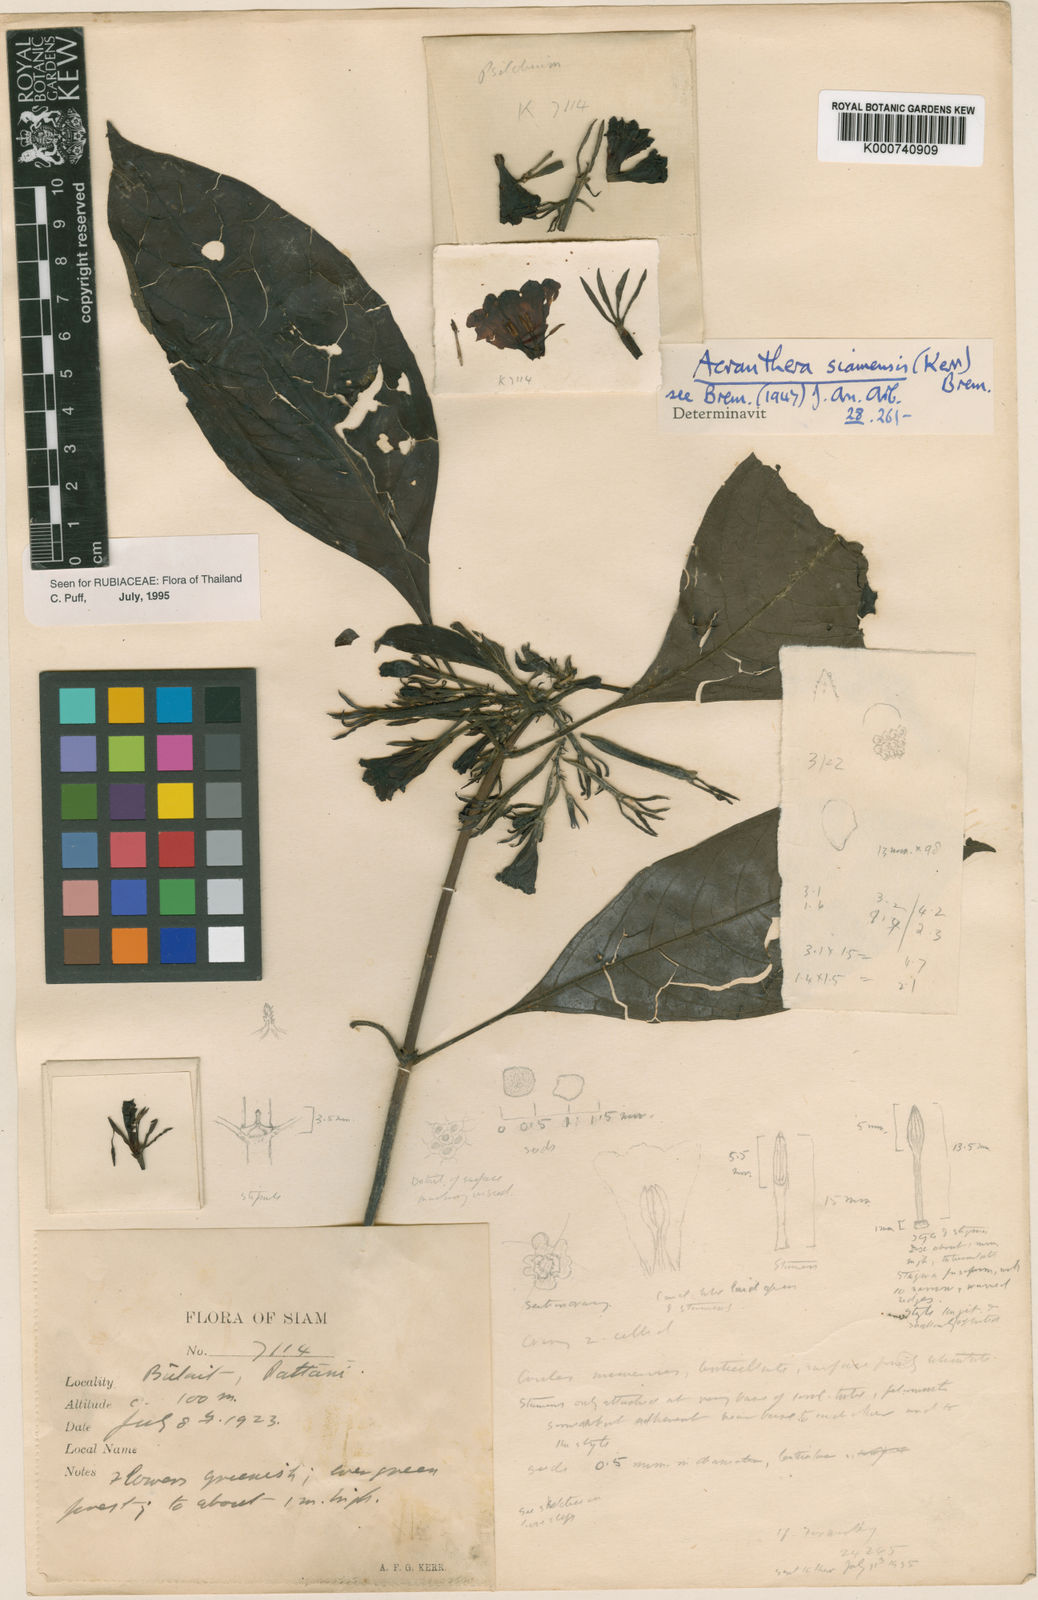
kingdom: Plantae
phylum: Tracheophyta
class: Magnoliopsida
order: Gentianales
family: Rubiaceae
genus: Acranthera
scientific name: Acranthera siamensis
